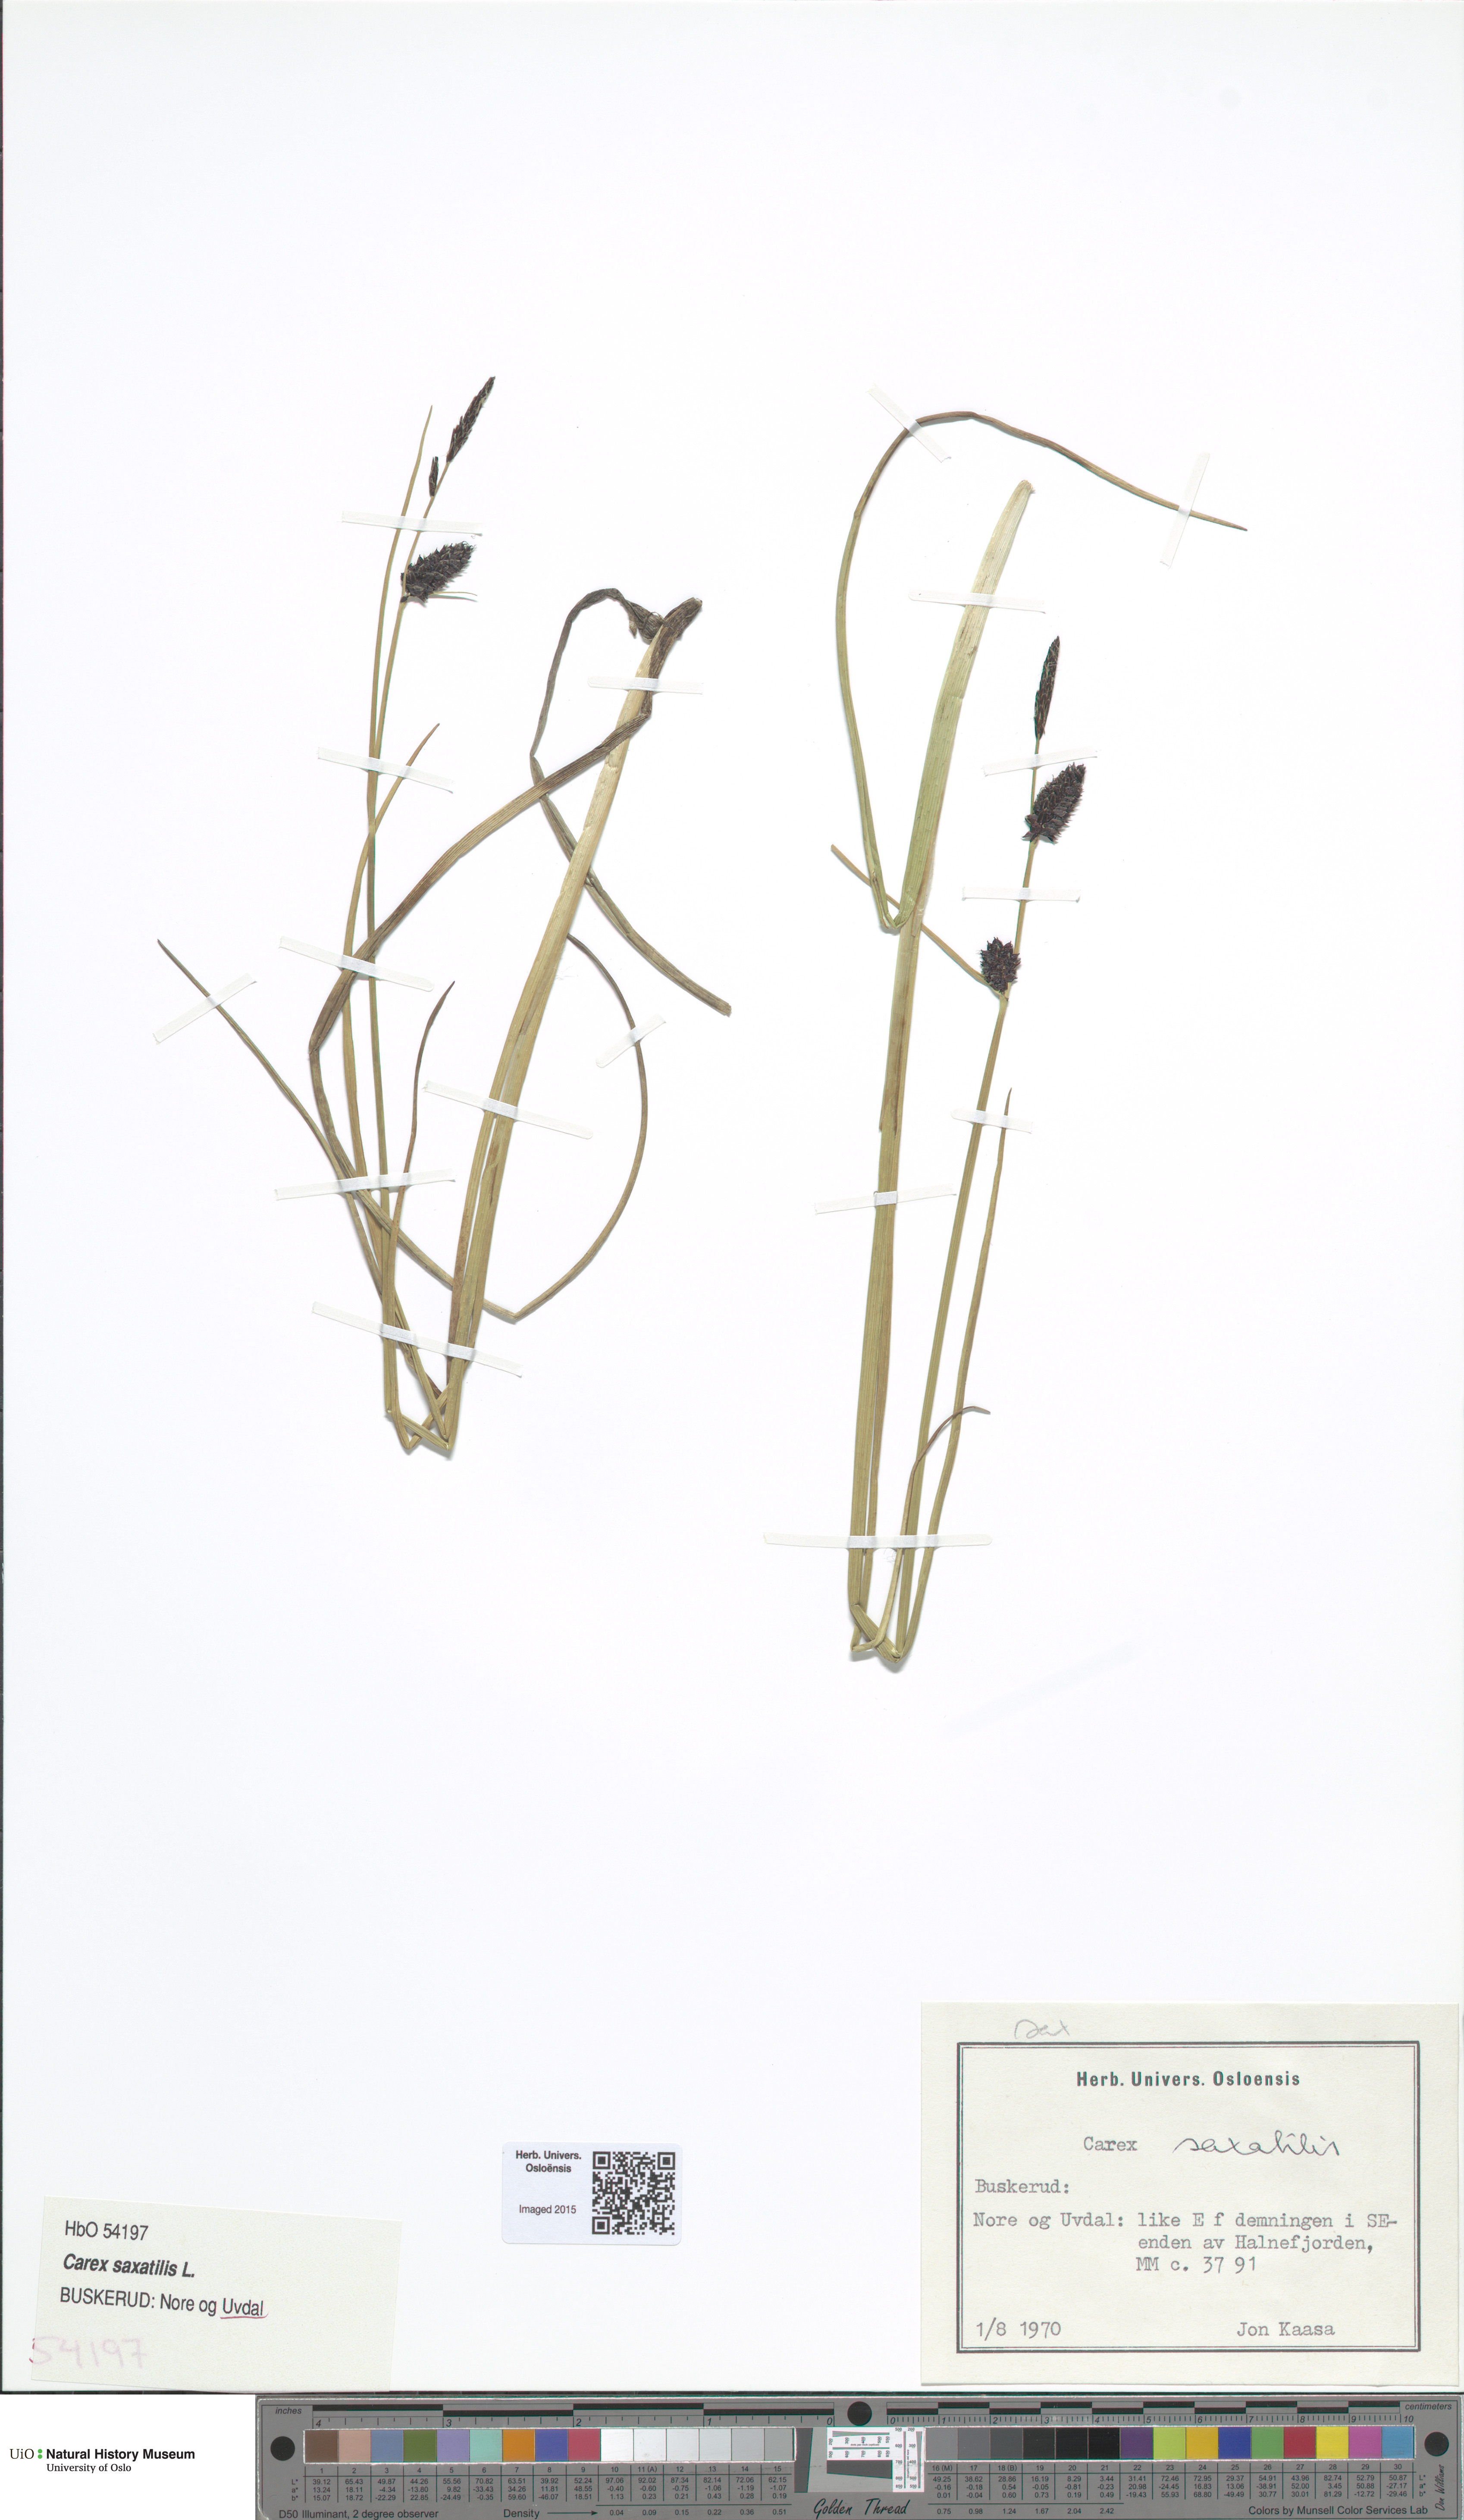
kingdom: Plantae
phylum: Tracheophyta
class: Liliopsida
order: Poales
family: Cyperaceae
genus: Carex
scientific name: Carex saxatilis
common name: Russet sedge
